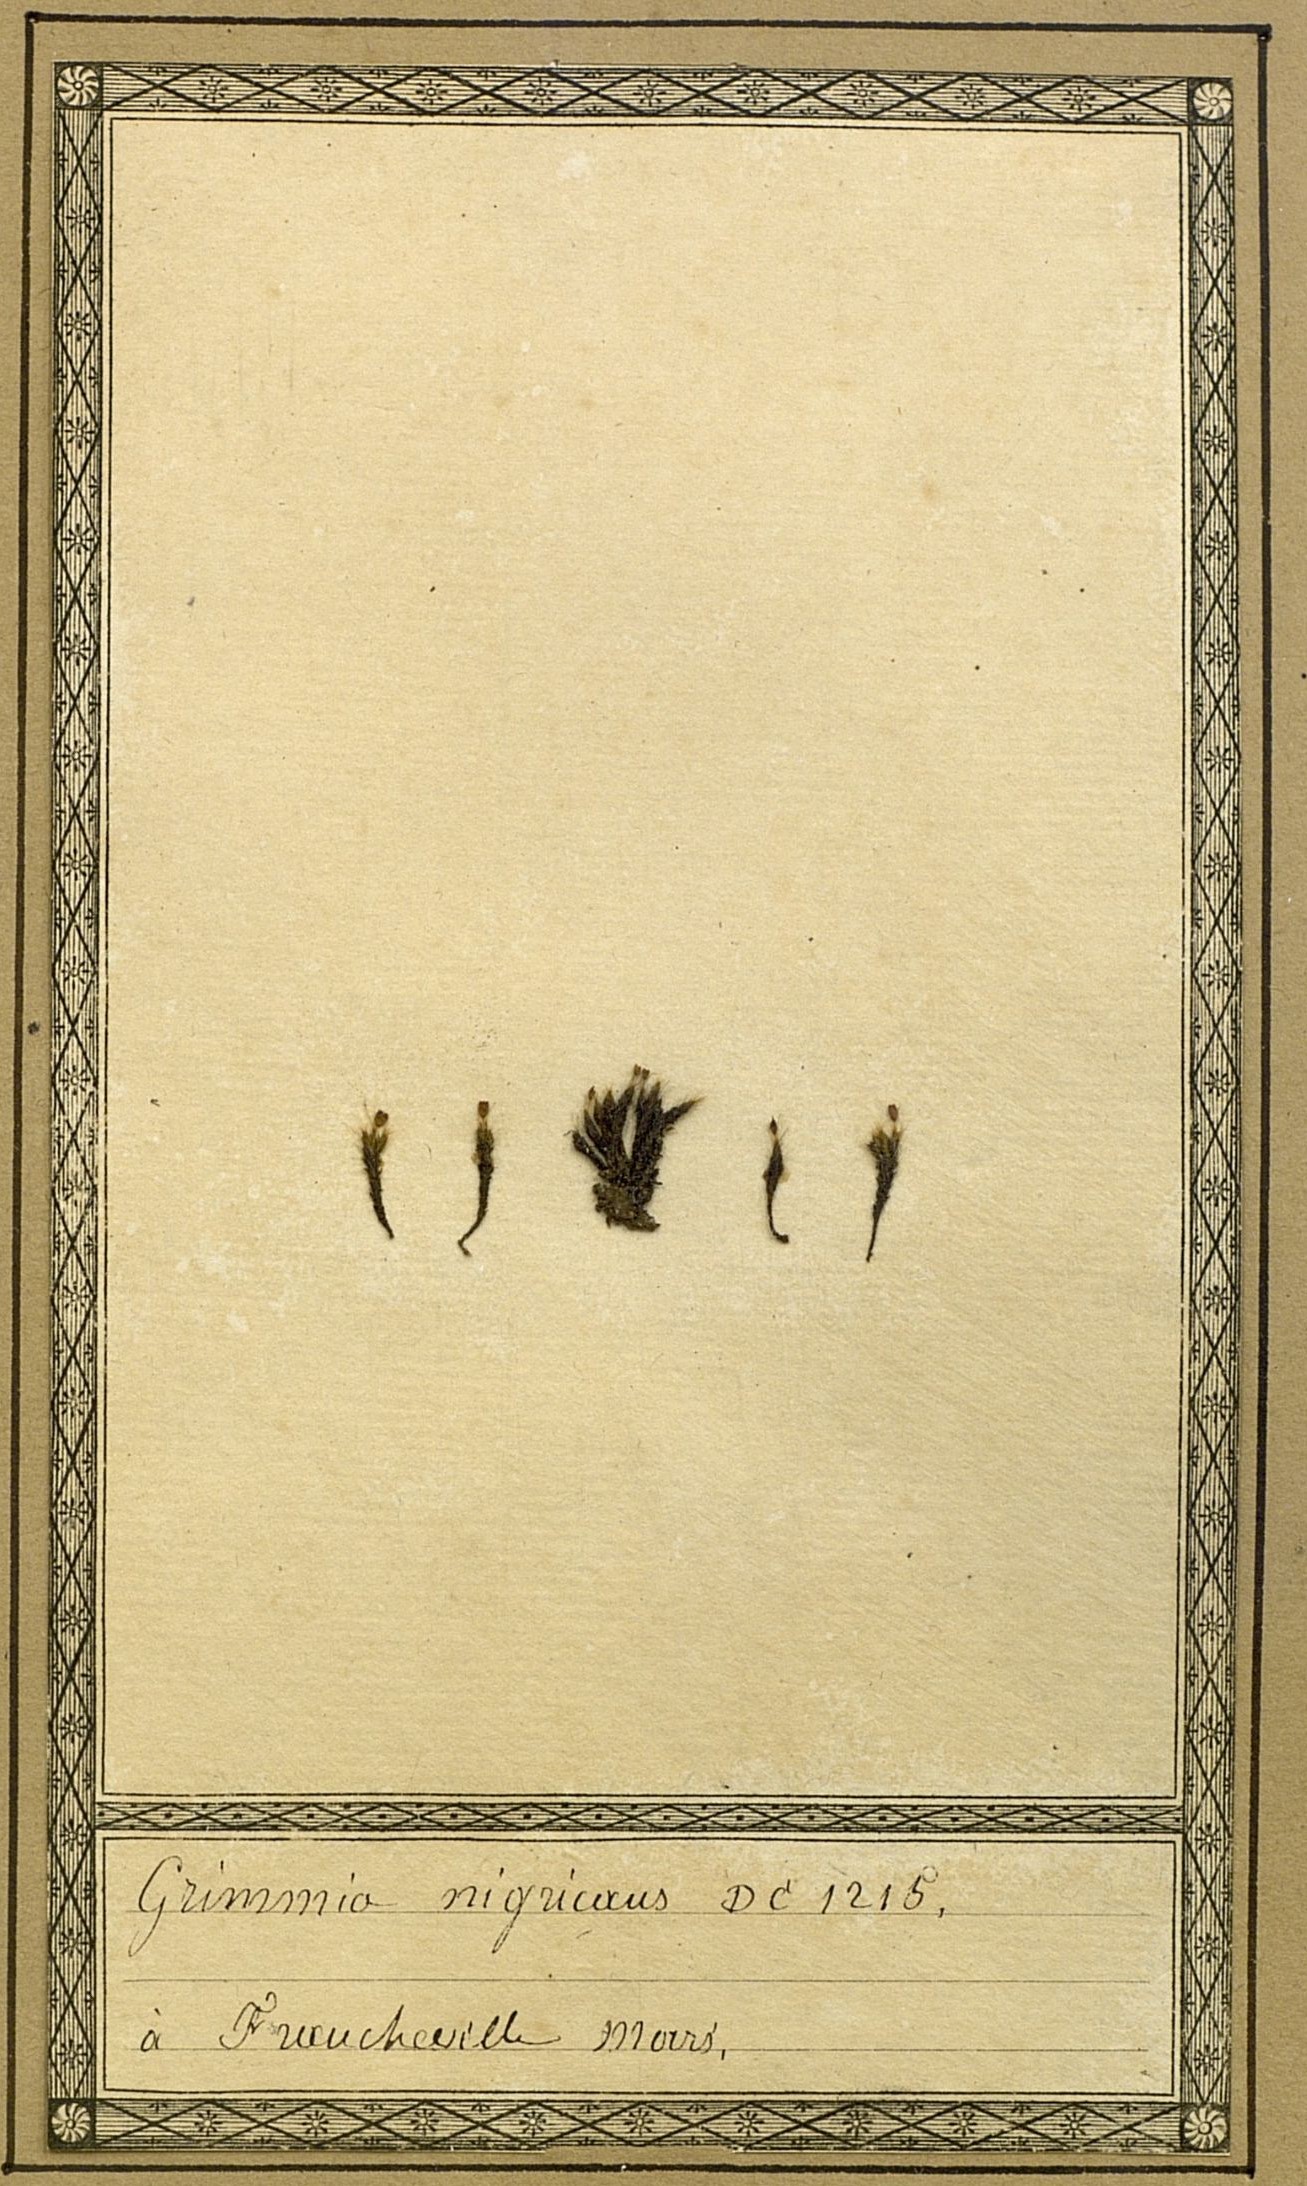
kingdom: Plantae
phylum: Bryophyta
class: Bryopsida
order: Grimmiales
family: Grimmiaceae
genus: Grimmia
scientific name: Grimmia ovalis
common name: Oval grimmia
